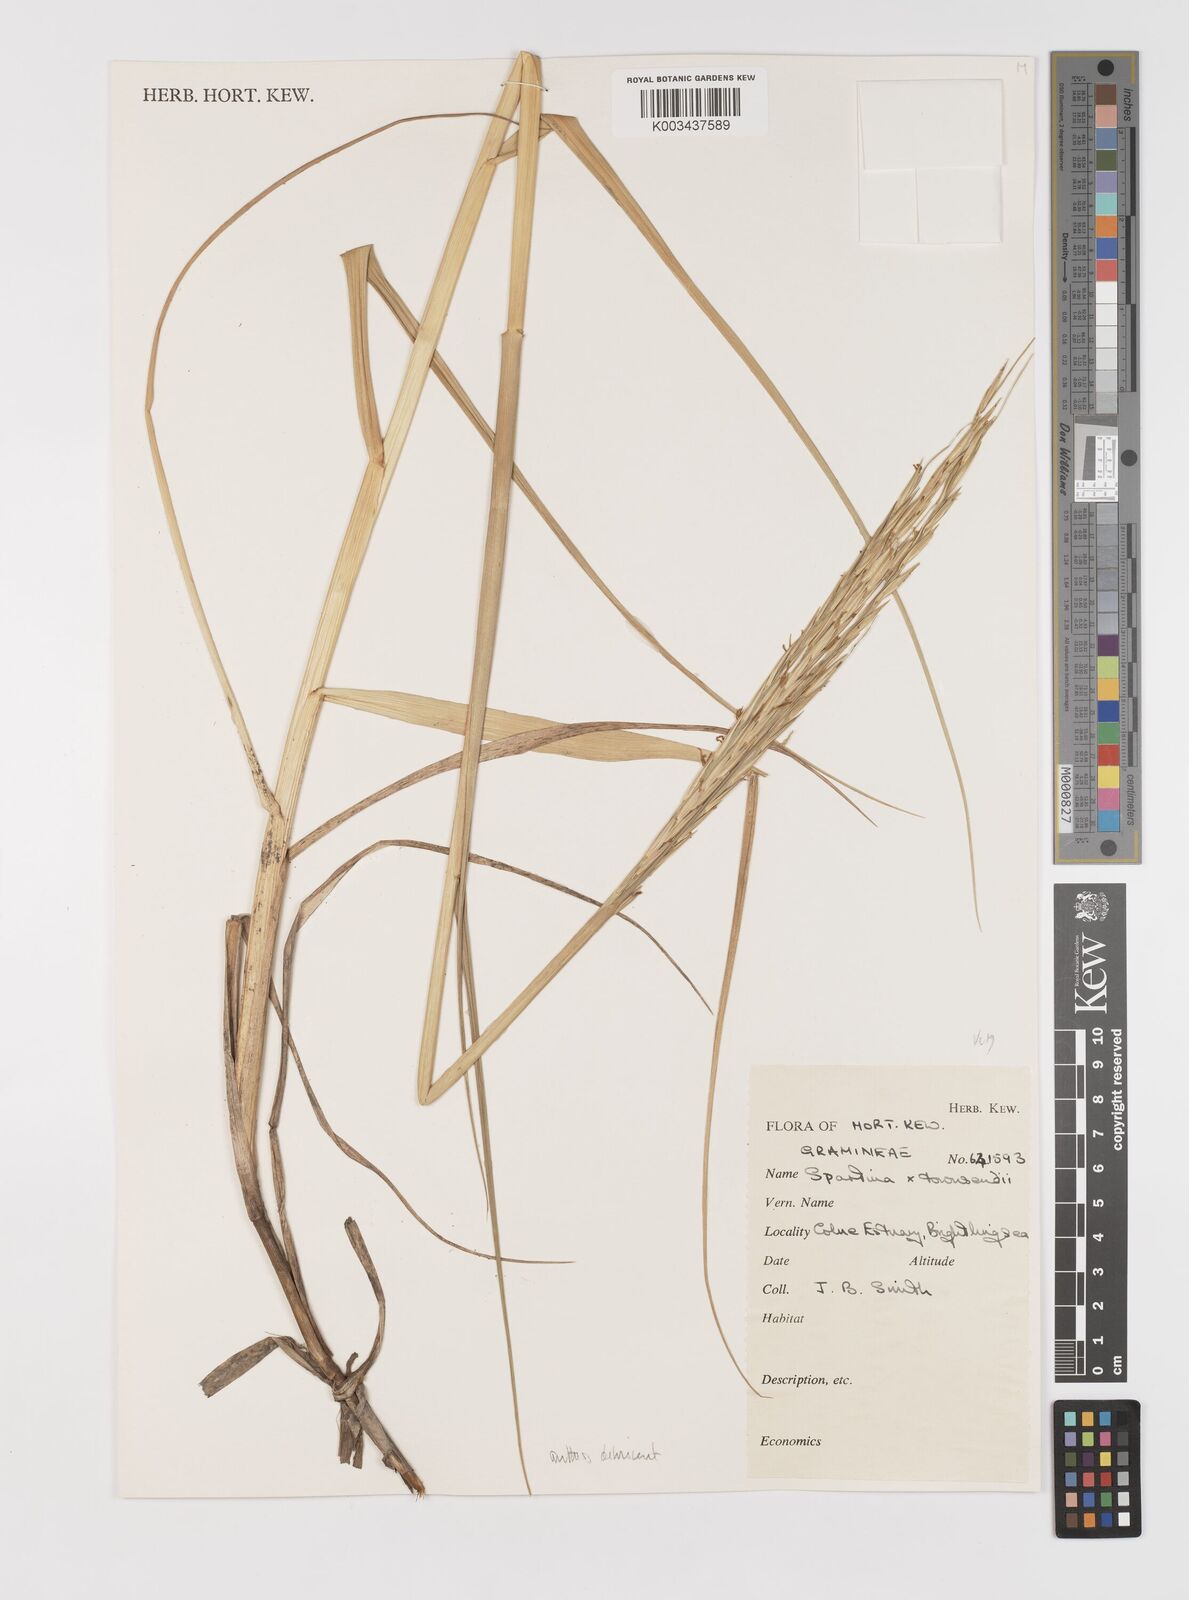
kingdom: Plantae
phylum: Tracheophyta
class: Liliopsida
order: Poales
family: Poaceae
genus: Sporobolus
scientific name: Sporobolus anglicus
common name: English cordgrass
